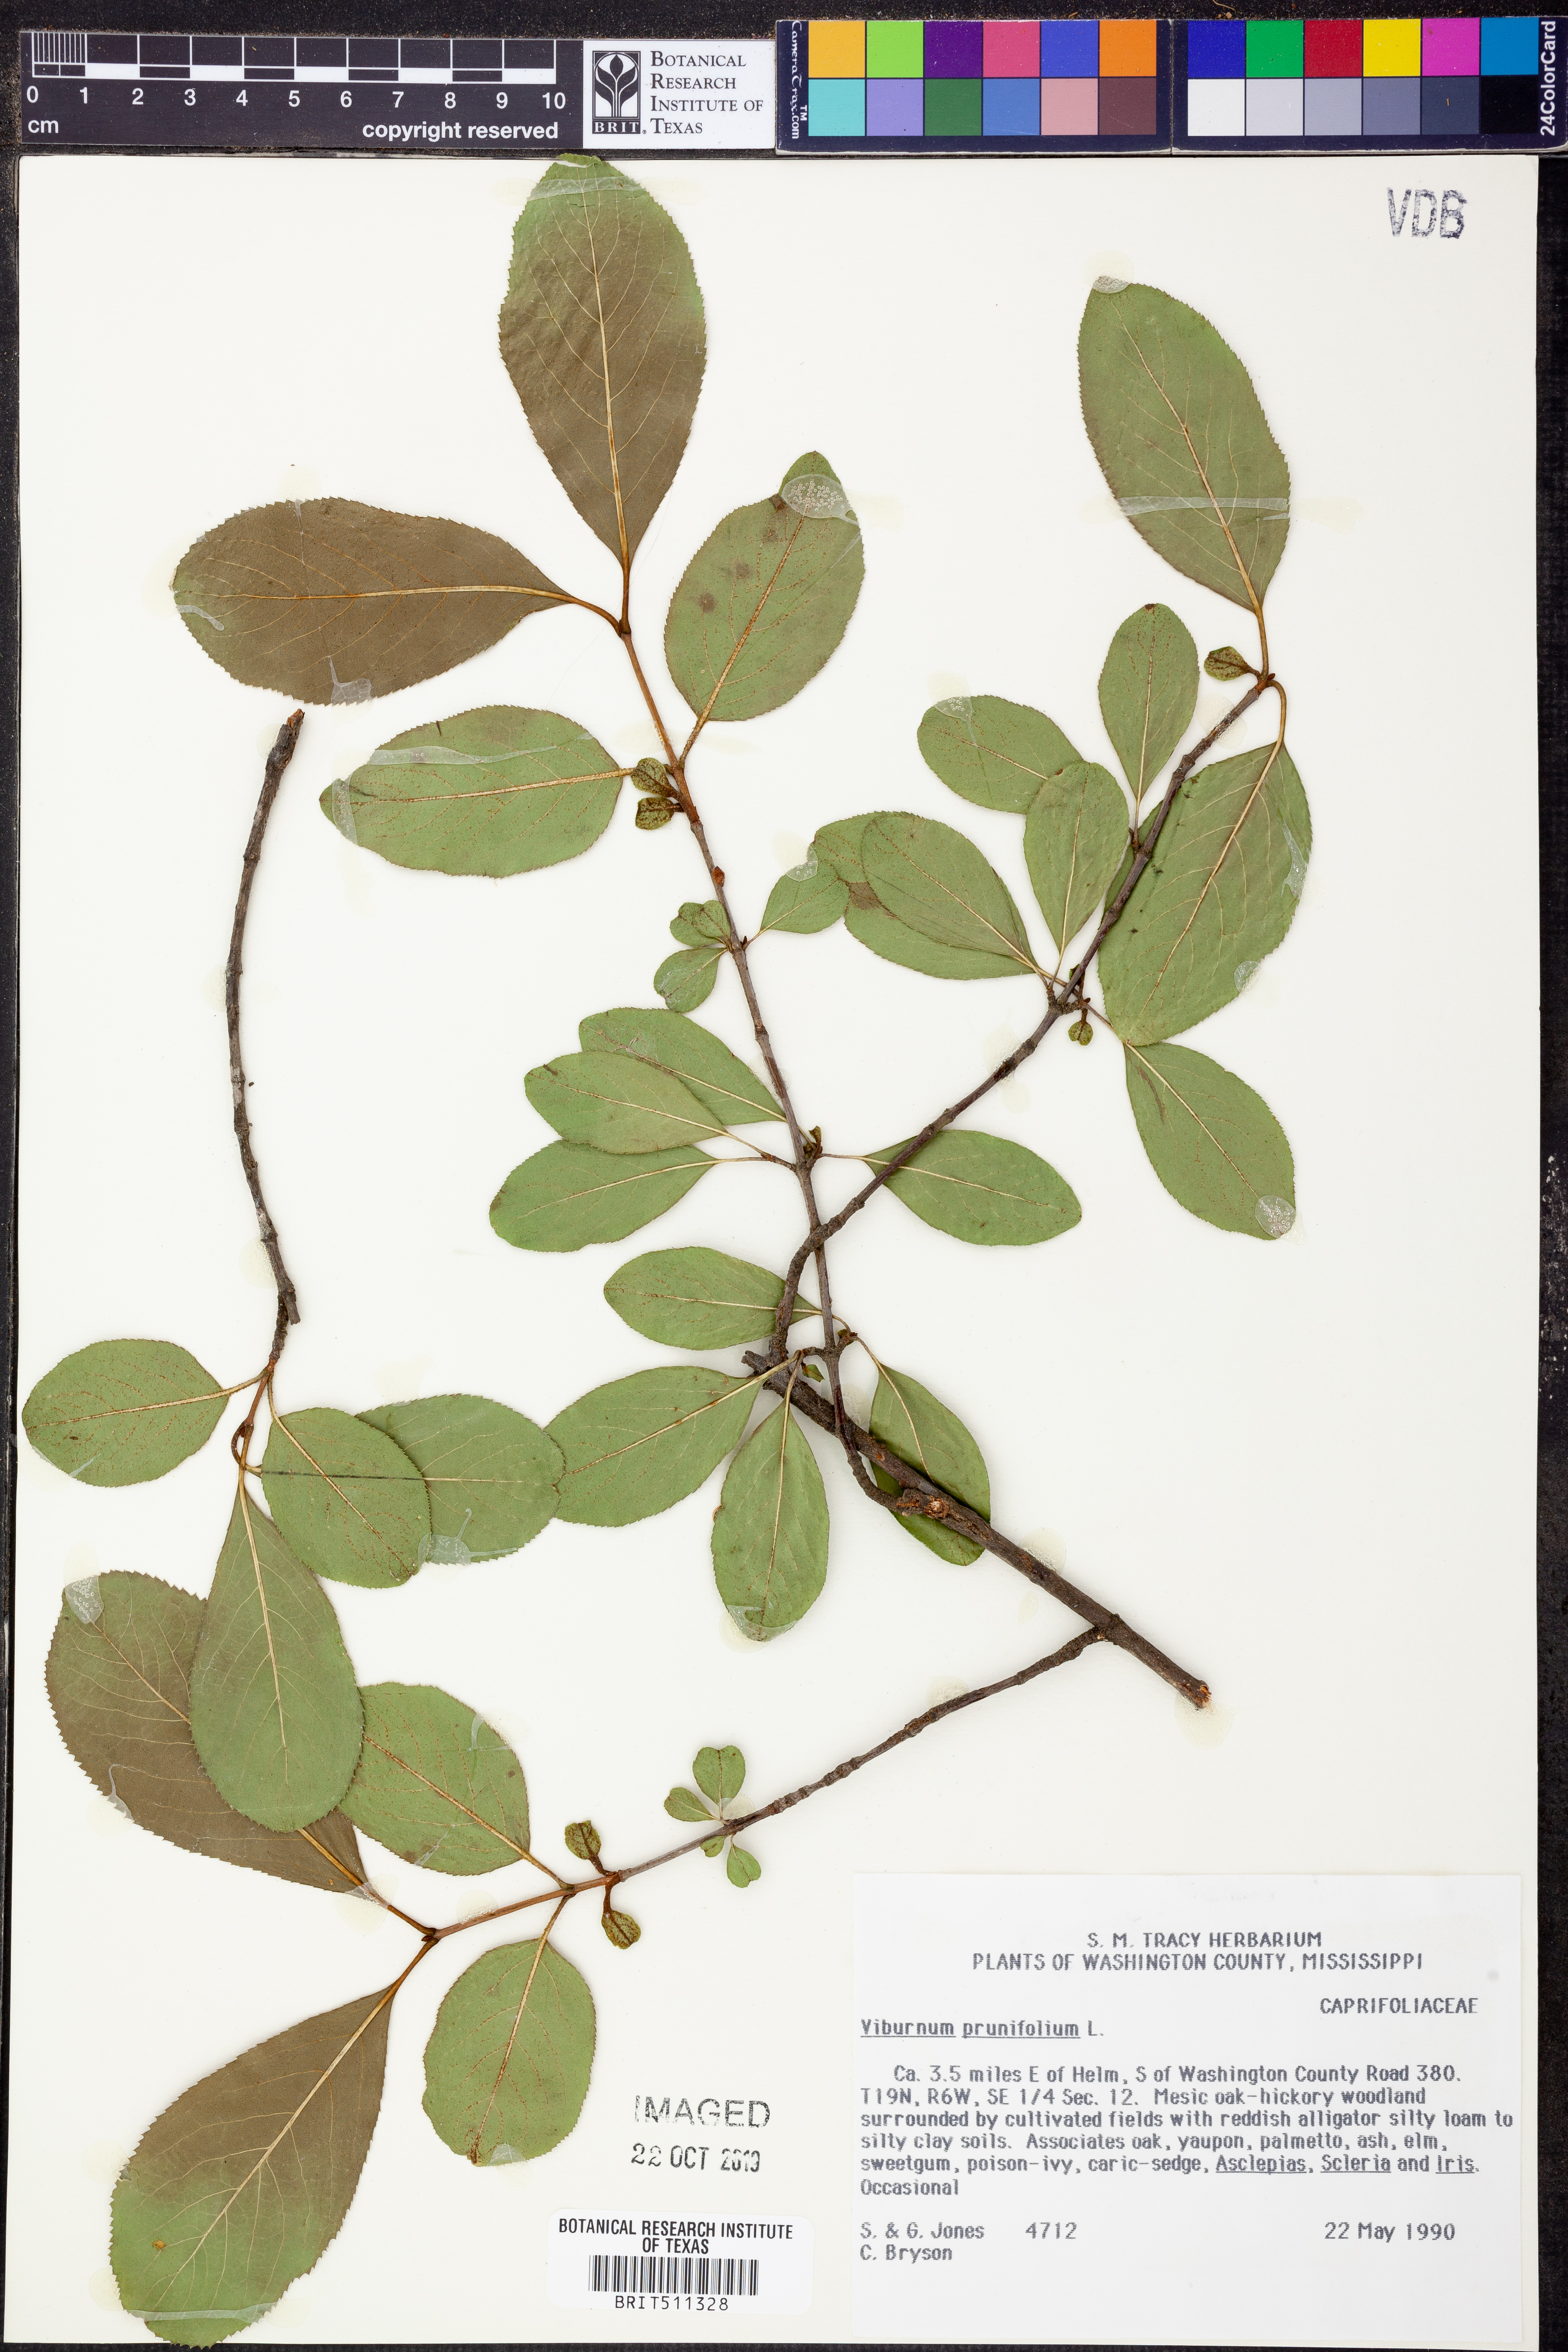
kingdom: Plantae
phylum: Tracheophyta
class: Magnoliopsida
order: Dipsacales
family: Viburnaceae
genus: Viburnum
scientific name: Viburnum prunifolium
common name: Black haw
